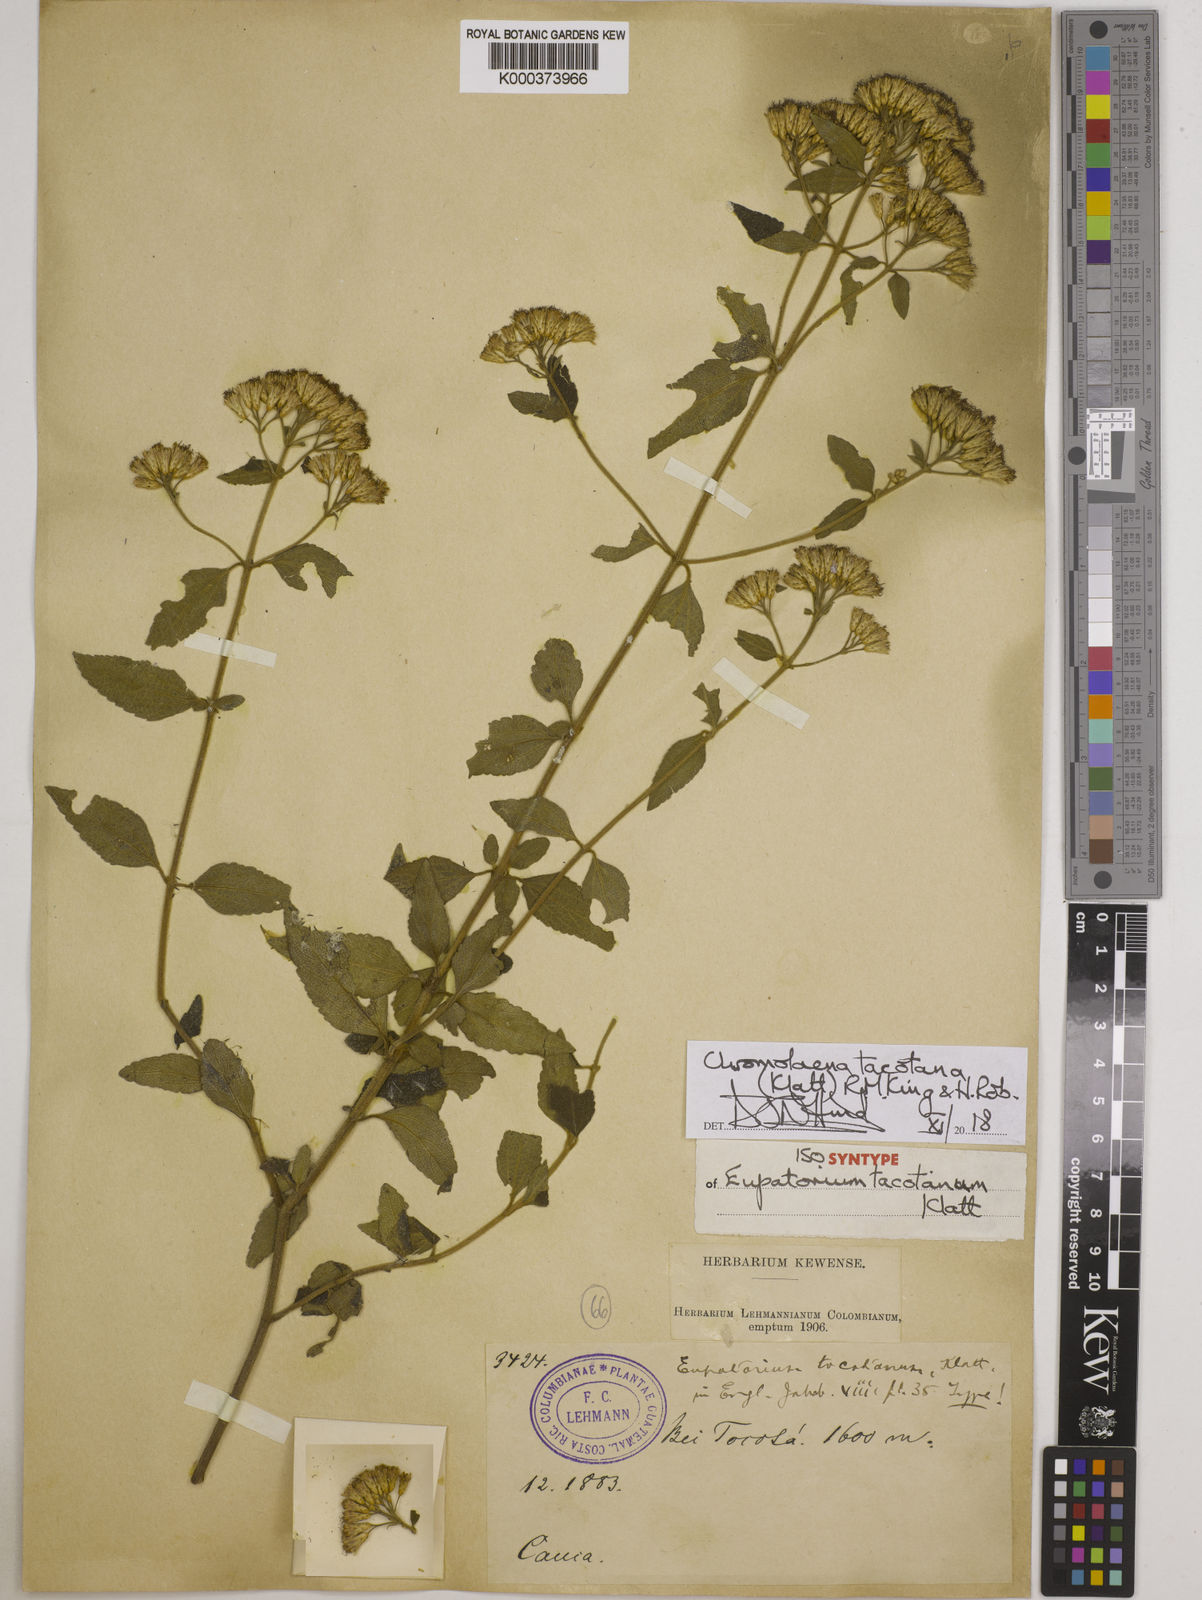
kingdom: Plantae
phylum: Tracheophyta
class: Magnoliopsida
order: Asterales
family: Asteraceae
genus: Chromolaena
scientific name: Chromolaena tacotana
